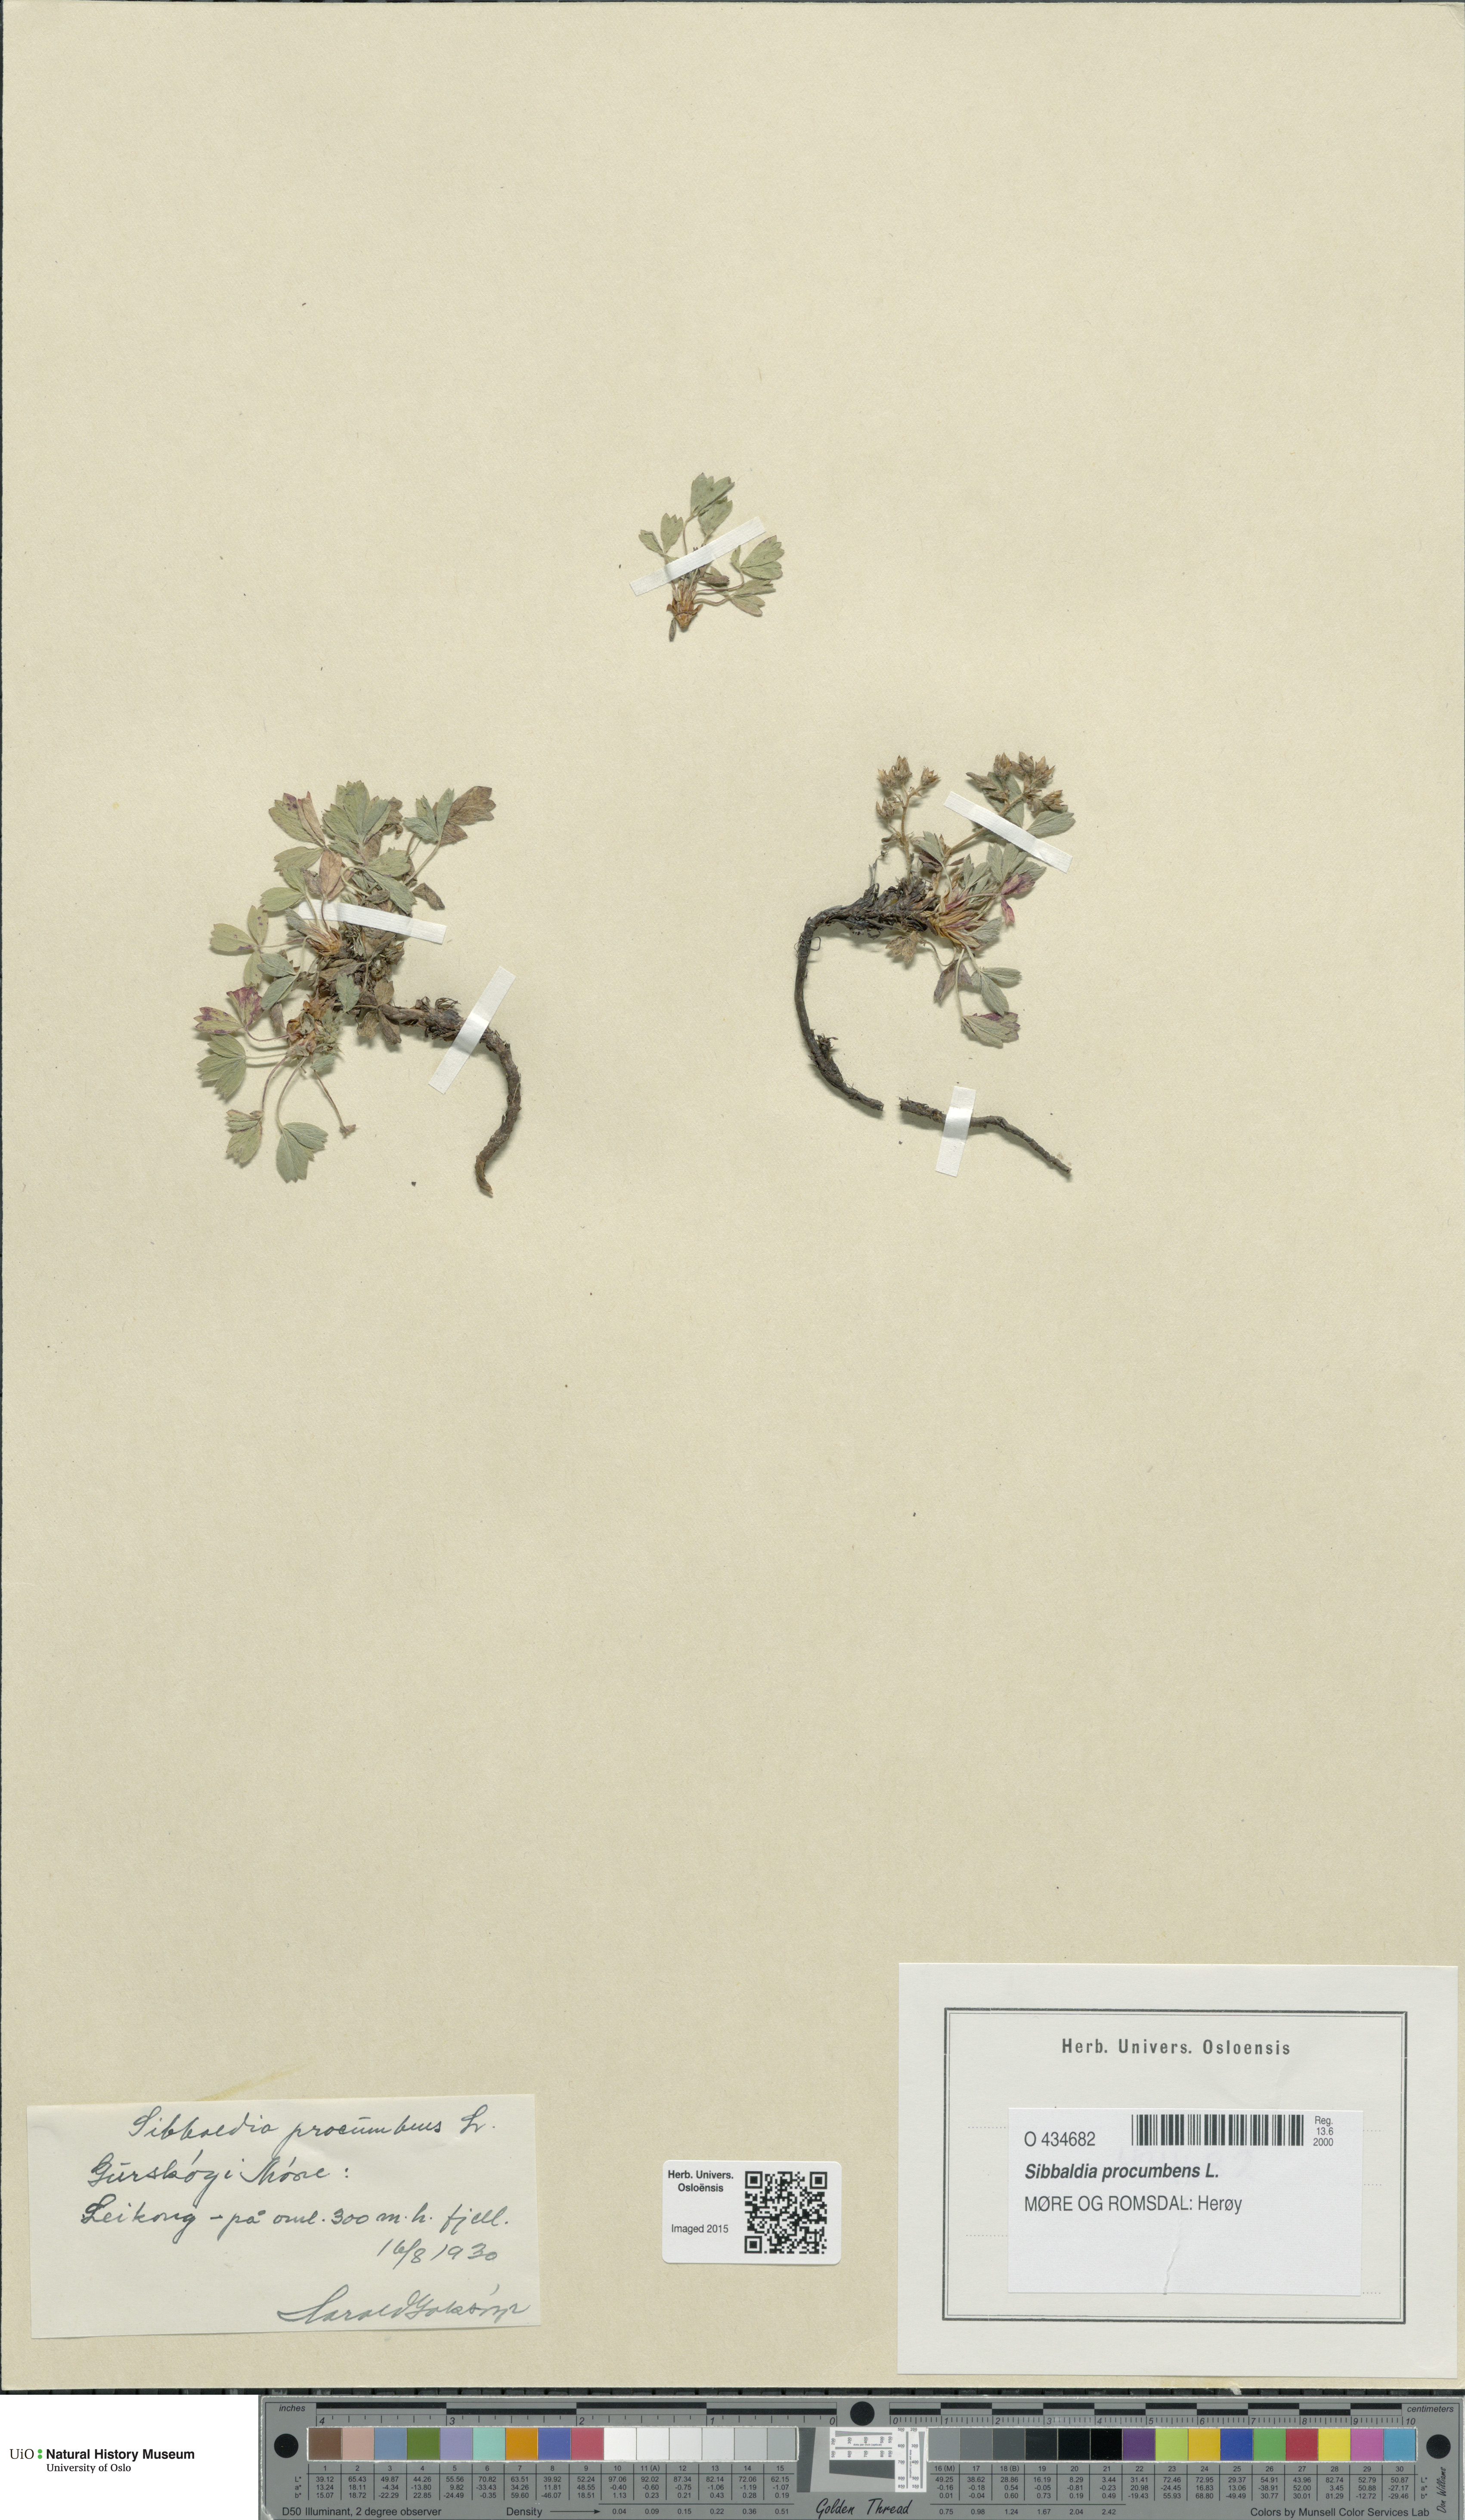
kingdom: Plantae
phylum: Tracheophyta
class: Magnoliopsida
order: Rosales
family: Rosaceae
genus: Sibbaldia
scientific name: Sibbaldia procumbens
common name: Creeping sibbaldia
